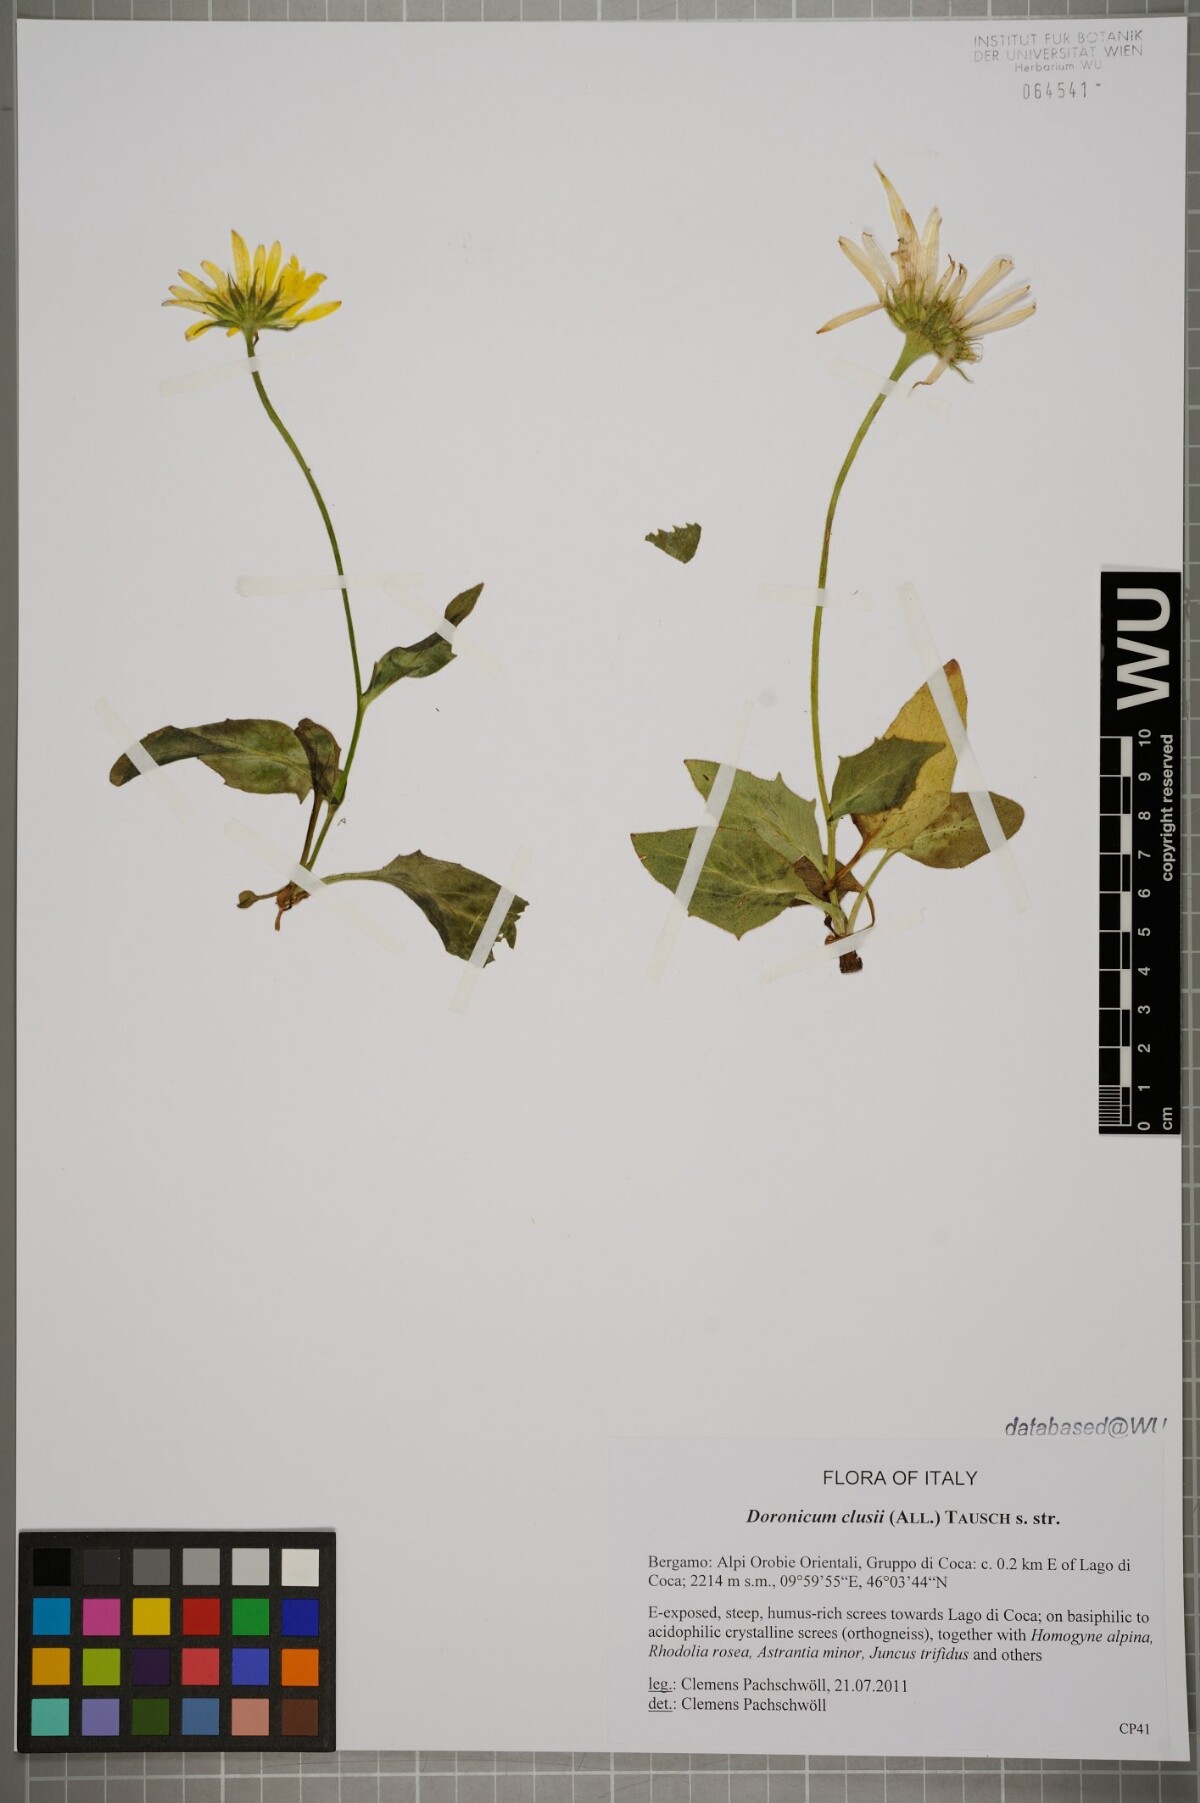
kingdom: Plantae
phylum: Tracheophyta
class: Magnoliopsida
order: Asterales
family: Asteraceae
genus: Doronicum
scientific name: Doronicum clusii
